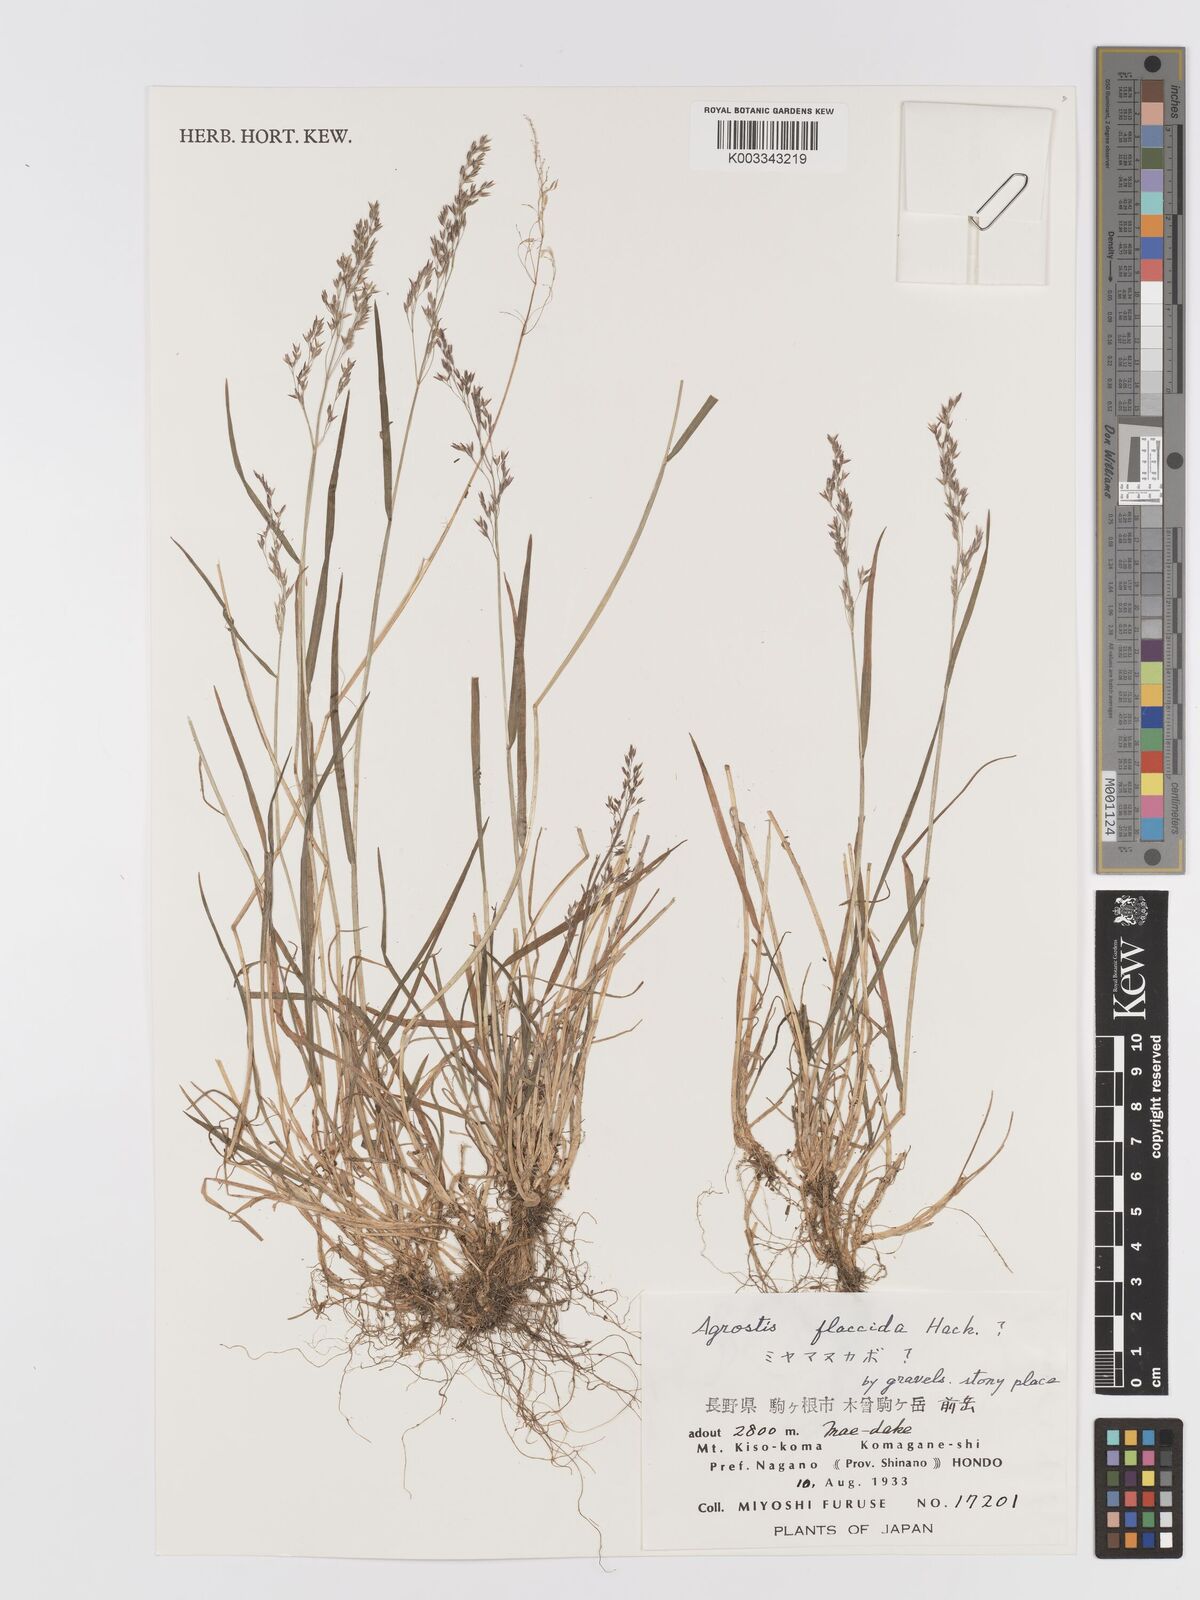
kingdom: Plantae
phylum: Tracheophyta
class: Liliopsida
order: Poales
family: Poaceae
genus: Agrostis
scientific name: Agrostis flaccida
